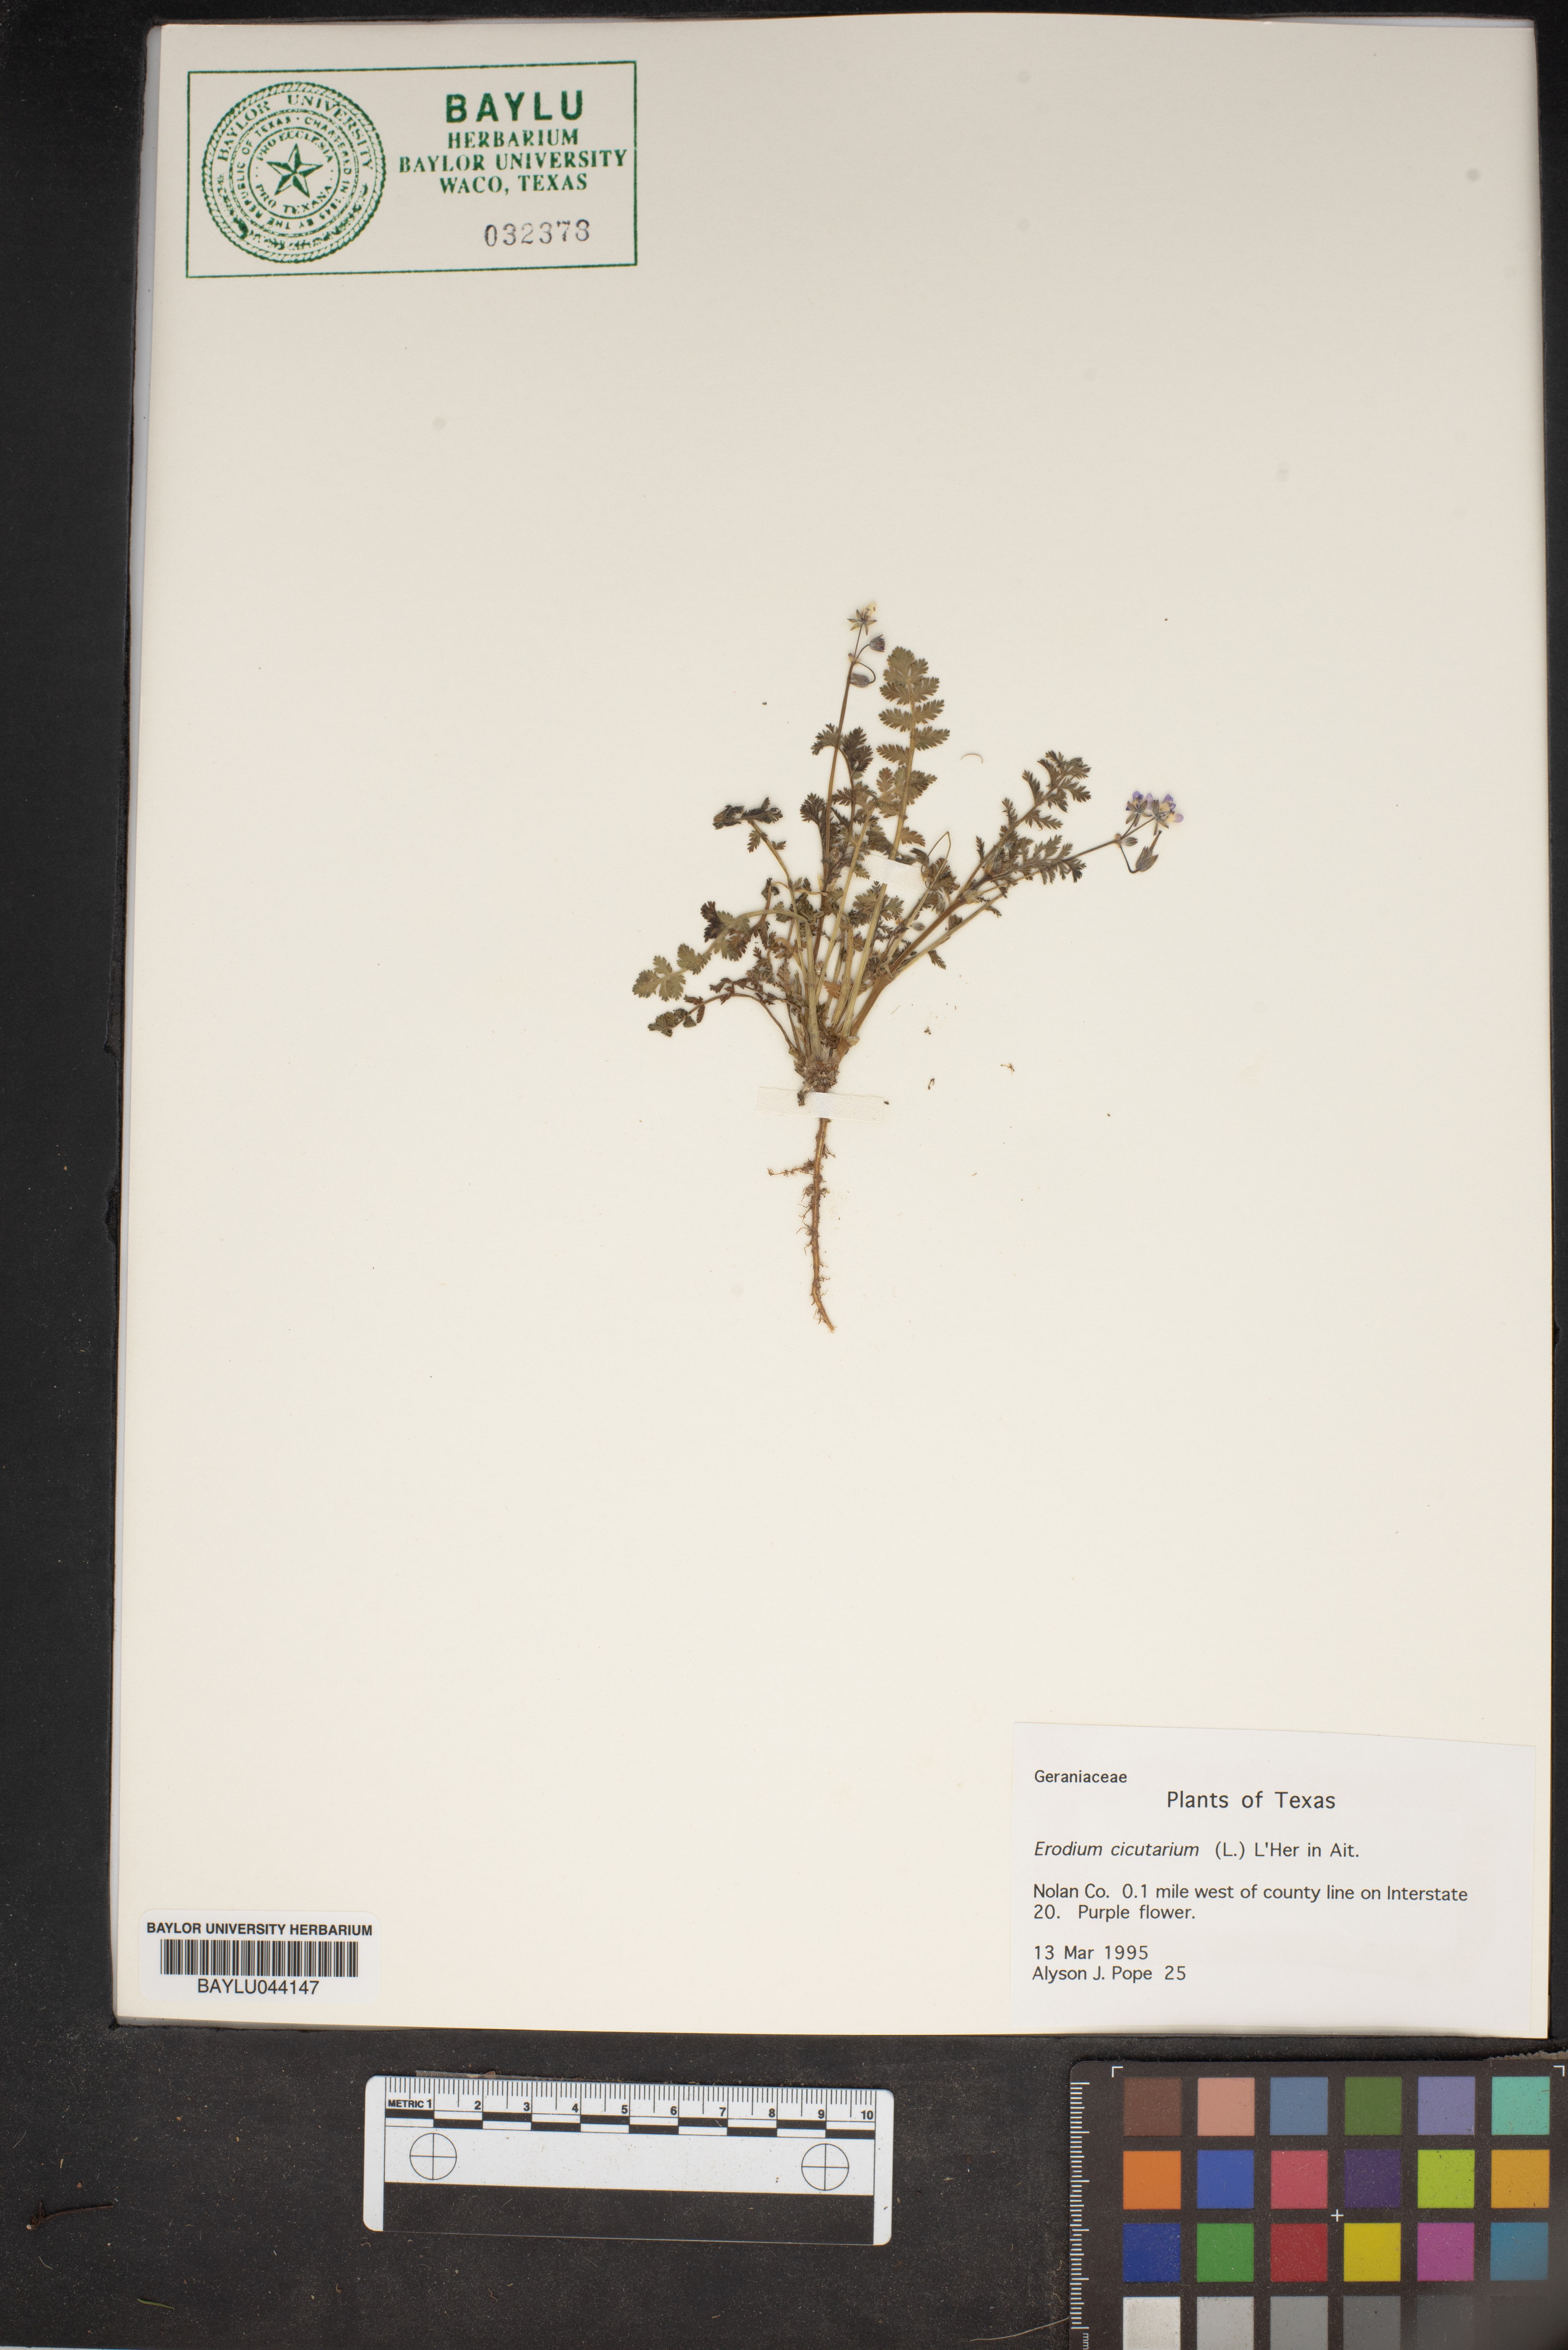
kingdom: Plantae
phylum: Tracheophyta
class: Magnoliopsida
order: Geraniales
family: Geraniaceae
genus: Erodium
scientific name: Erodium cicutarium
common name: Common stork's-bill
